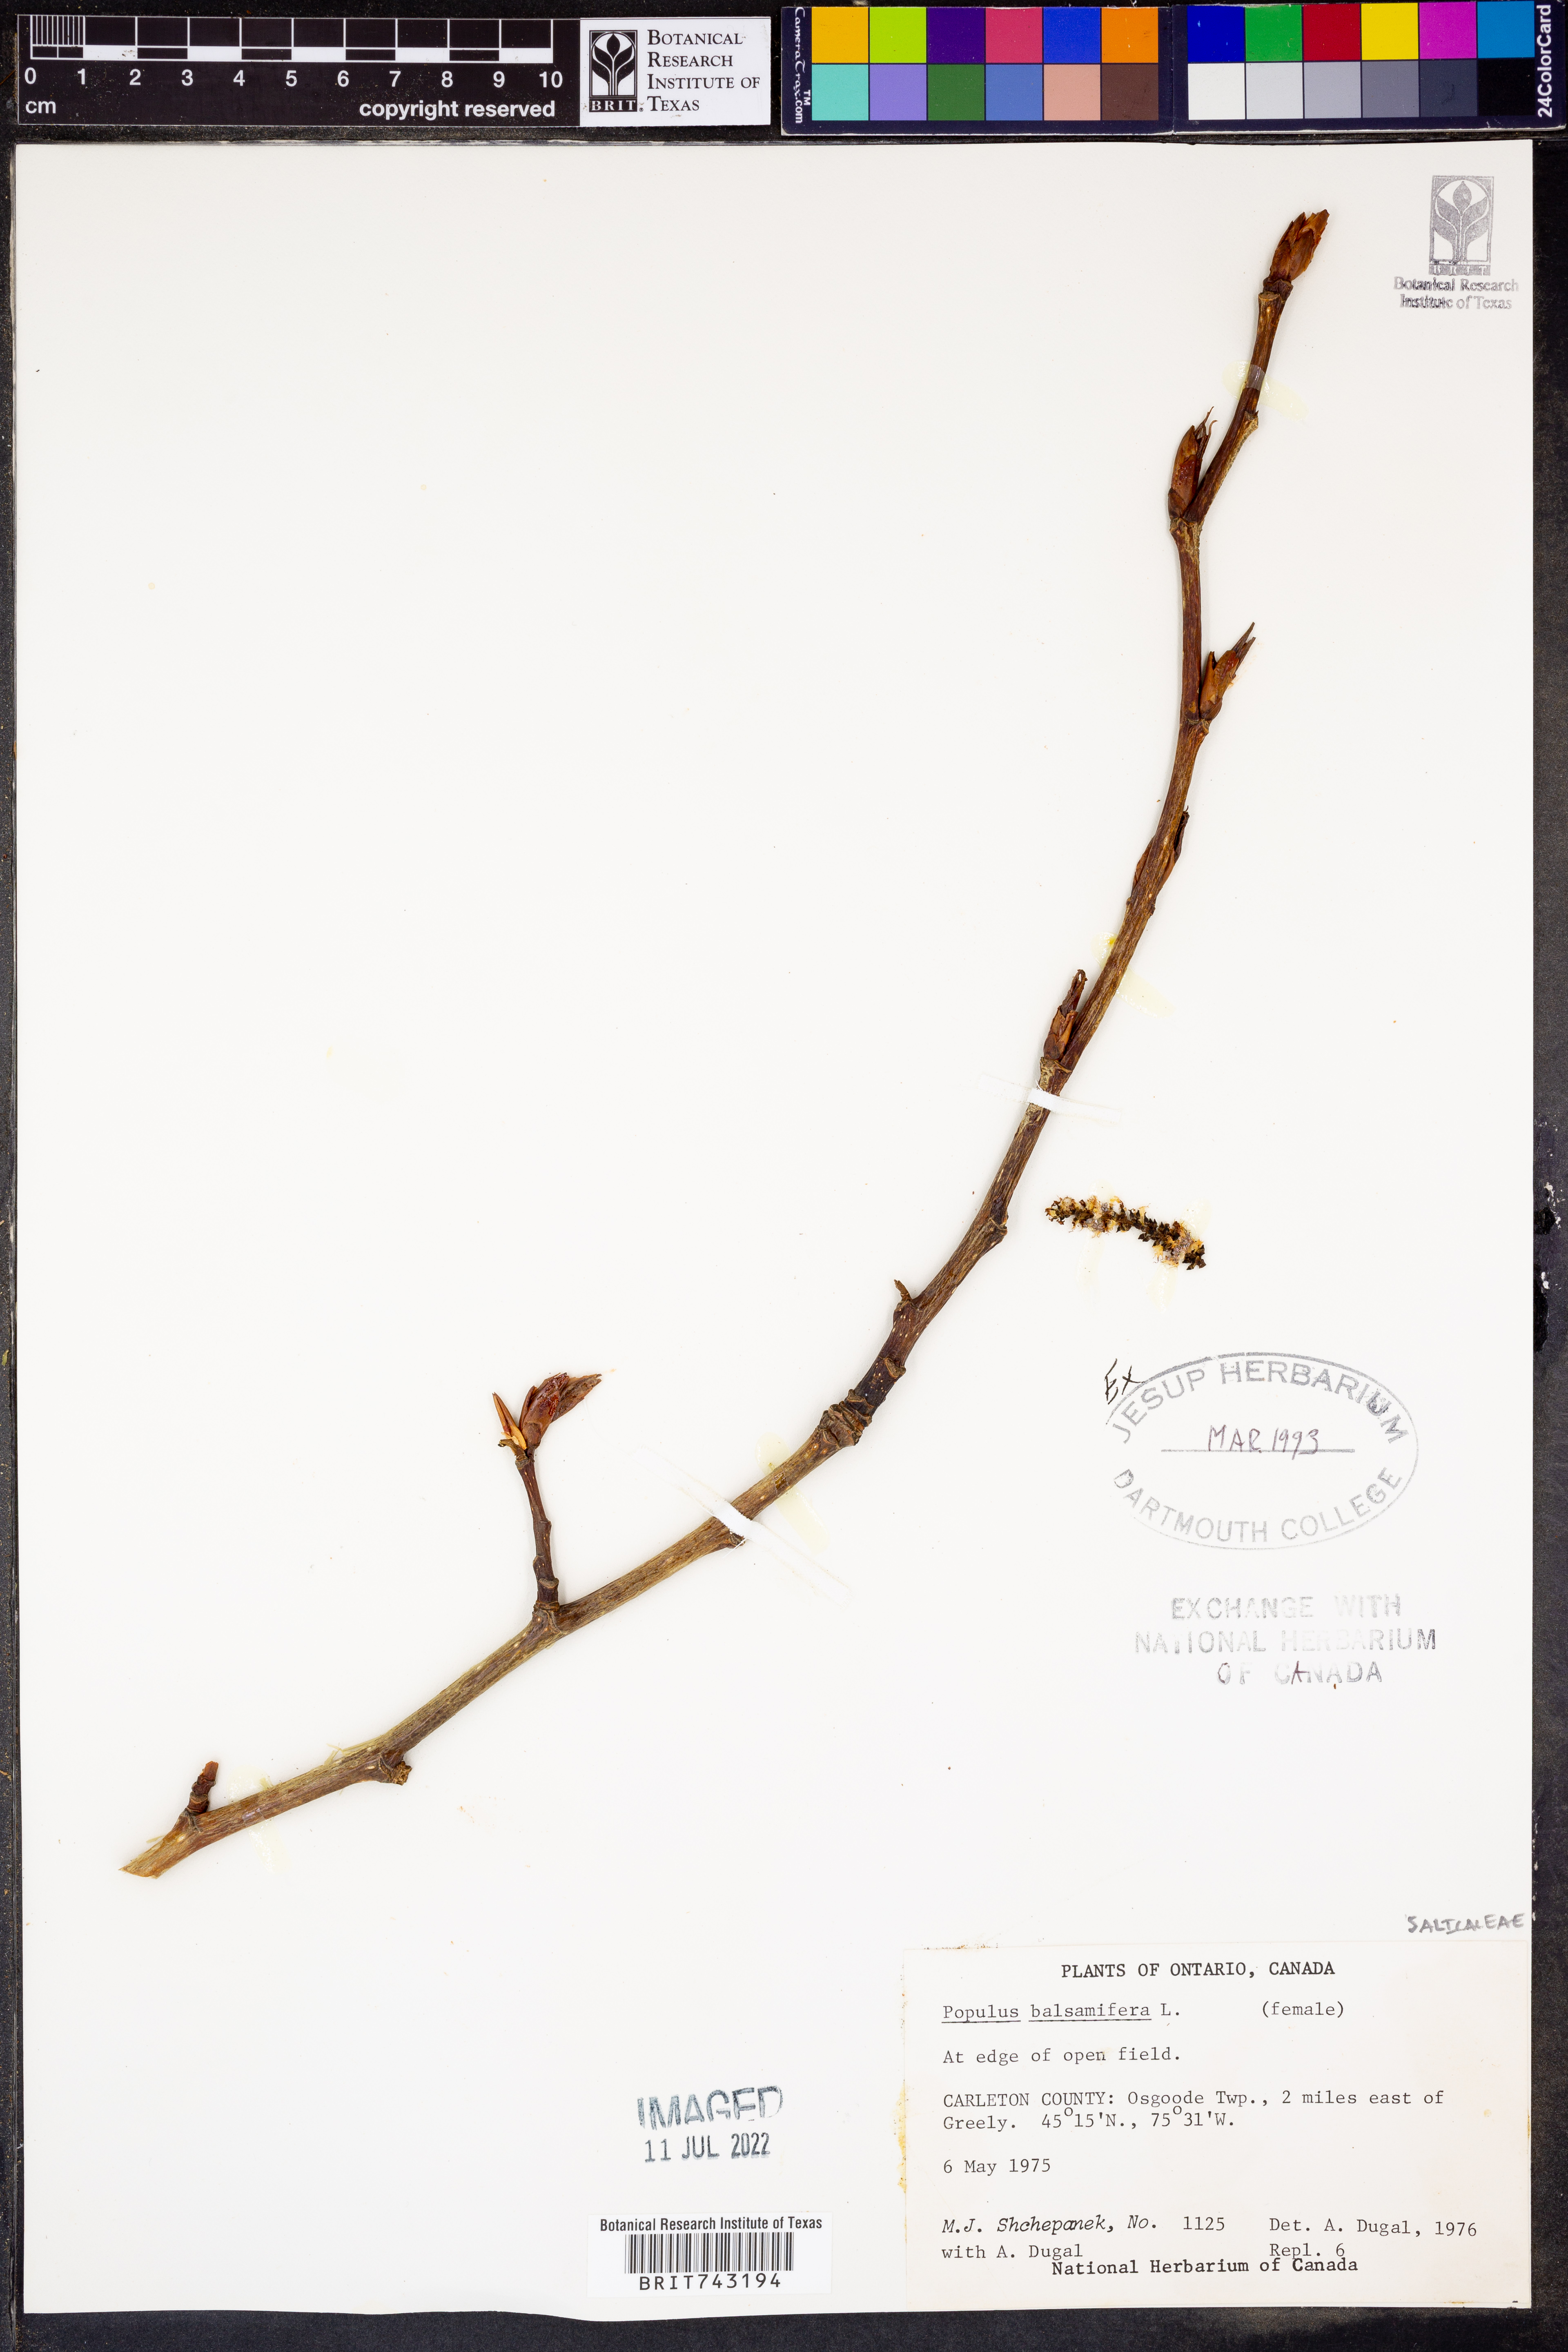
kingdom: Plantae
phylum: Tracheophyta
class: Magnoliopsida
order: Malpighiales
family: Salicaceae
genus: Populus
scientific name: Populus balsamifera
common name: Balsam poplar
